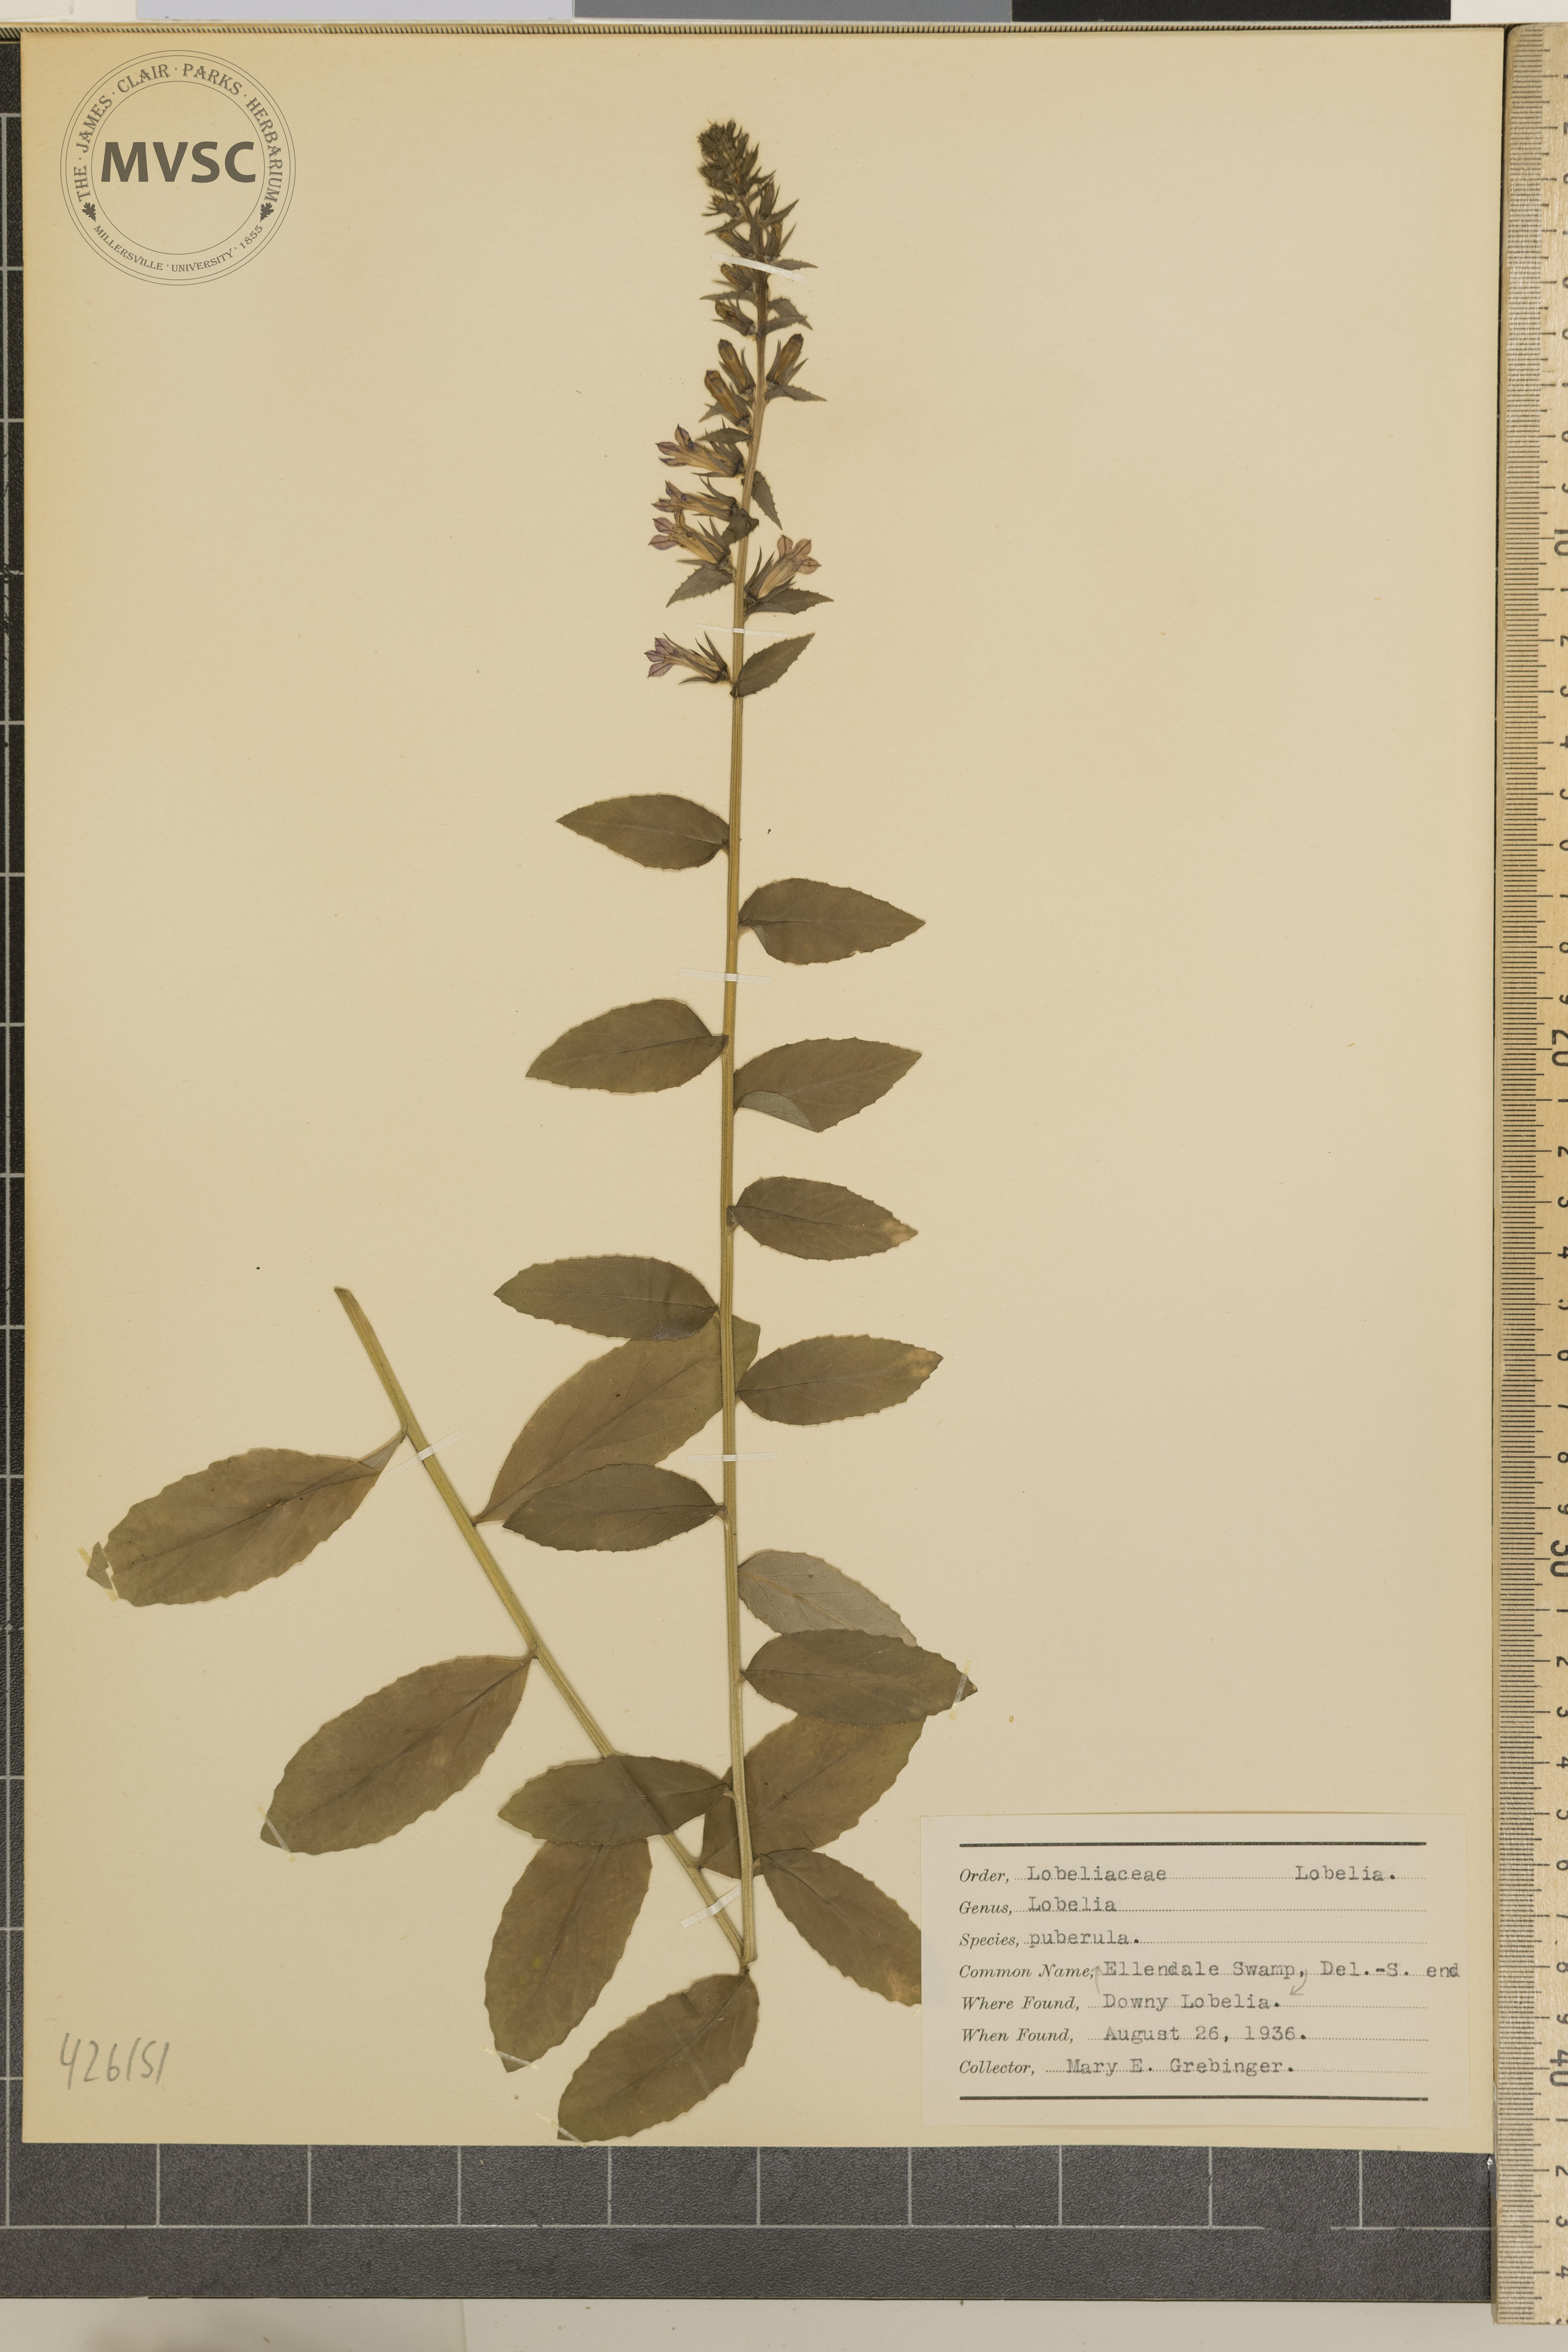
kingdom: Plantae
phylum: Tracheophyta
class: Magnoliopsida
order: Asterales
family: Campanulaceae
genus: Lobelia
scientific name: Lobelia puberula
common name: Downy lobelia
